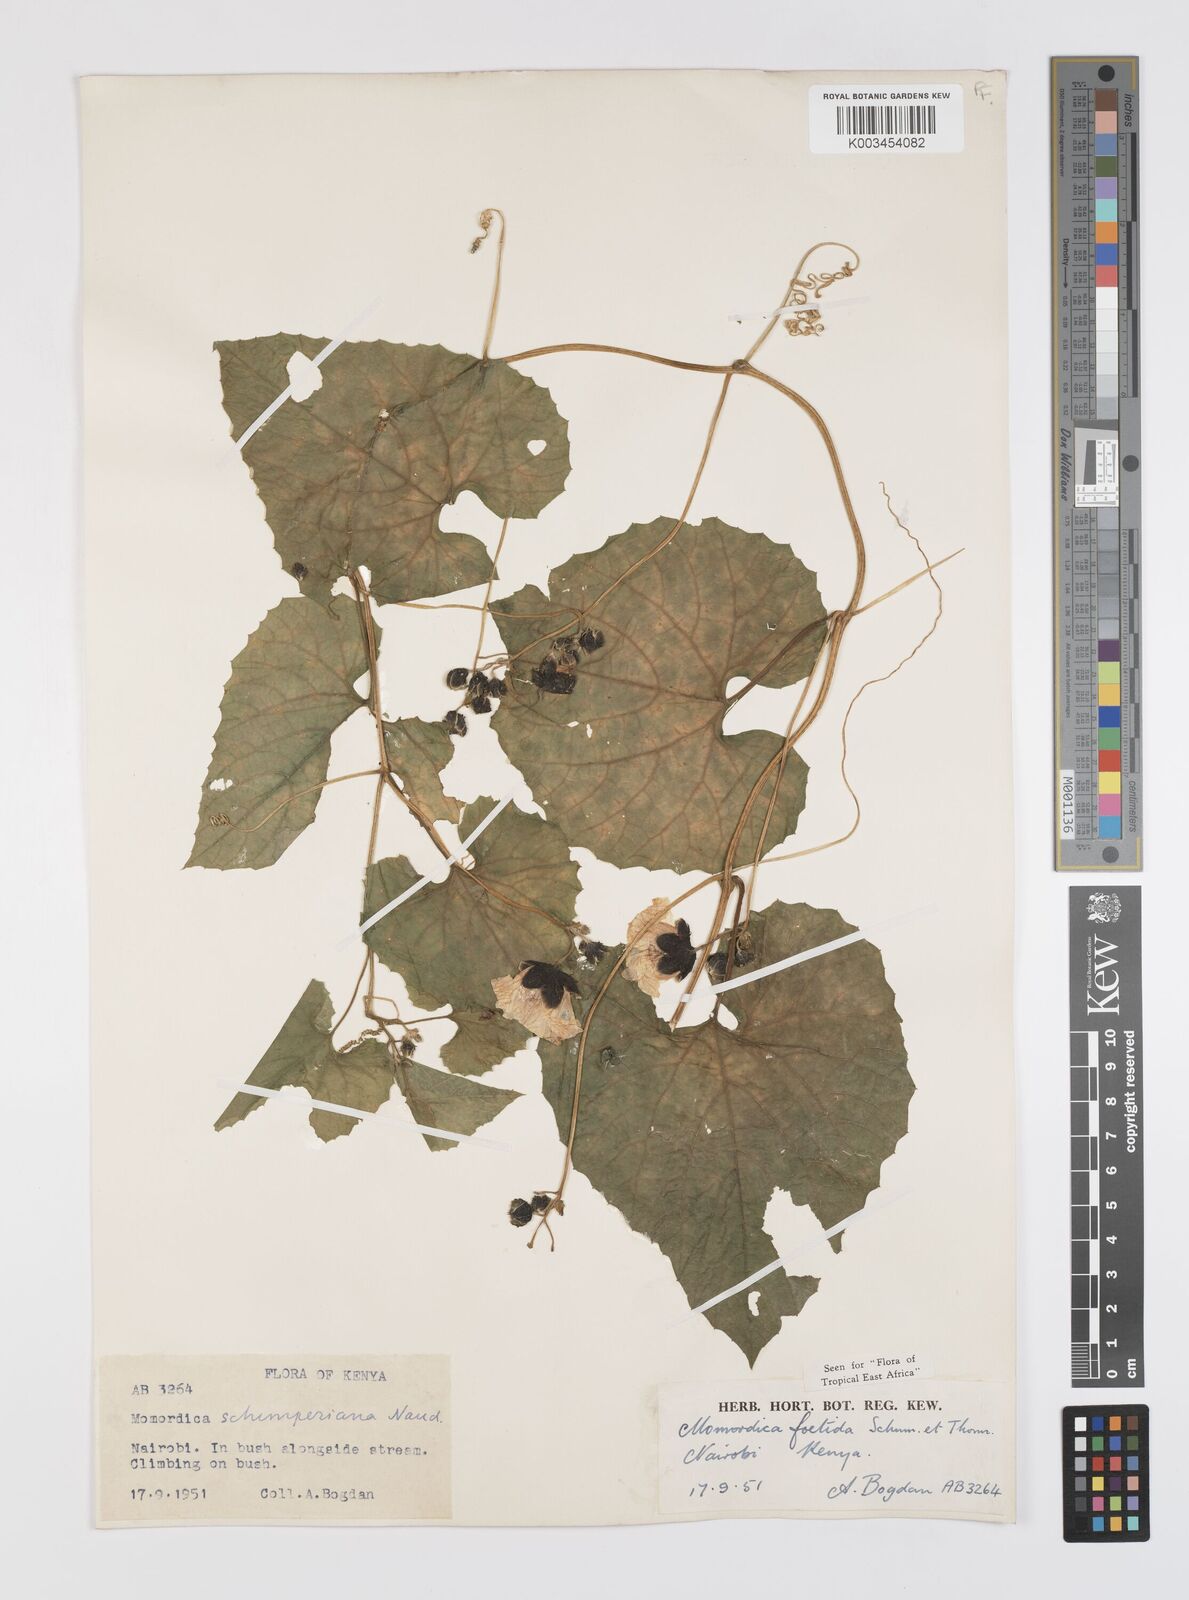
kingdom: Plantae
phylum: Tracheophyta
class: Magnoliopsida
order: Cucurbitales
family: Cucurbitaceae
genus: Momordica
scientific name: Momordica foetida
